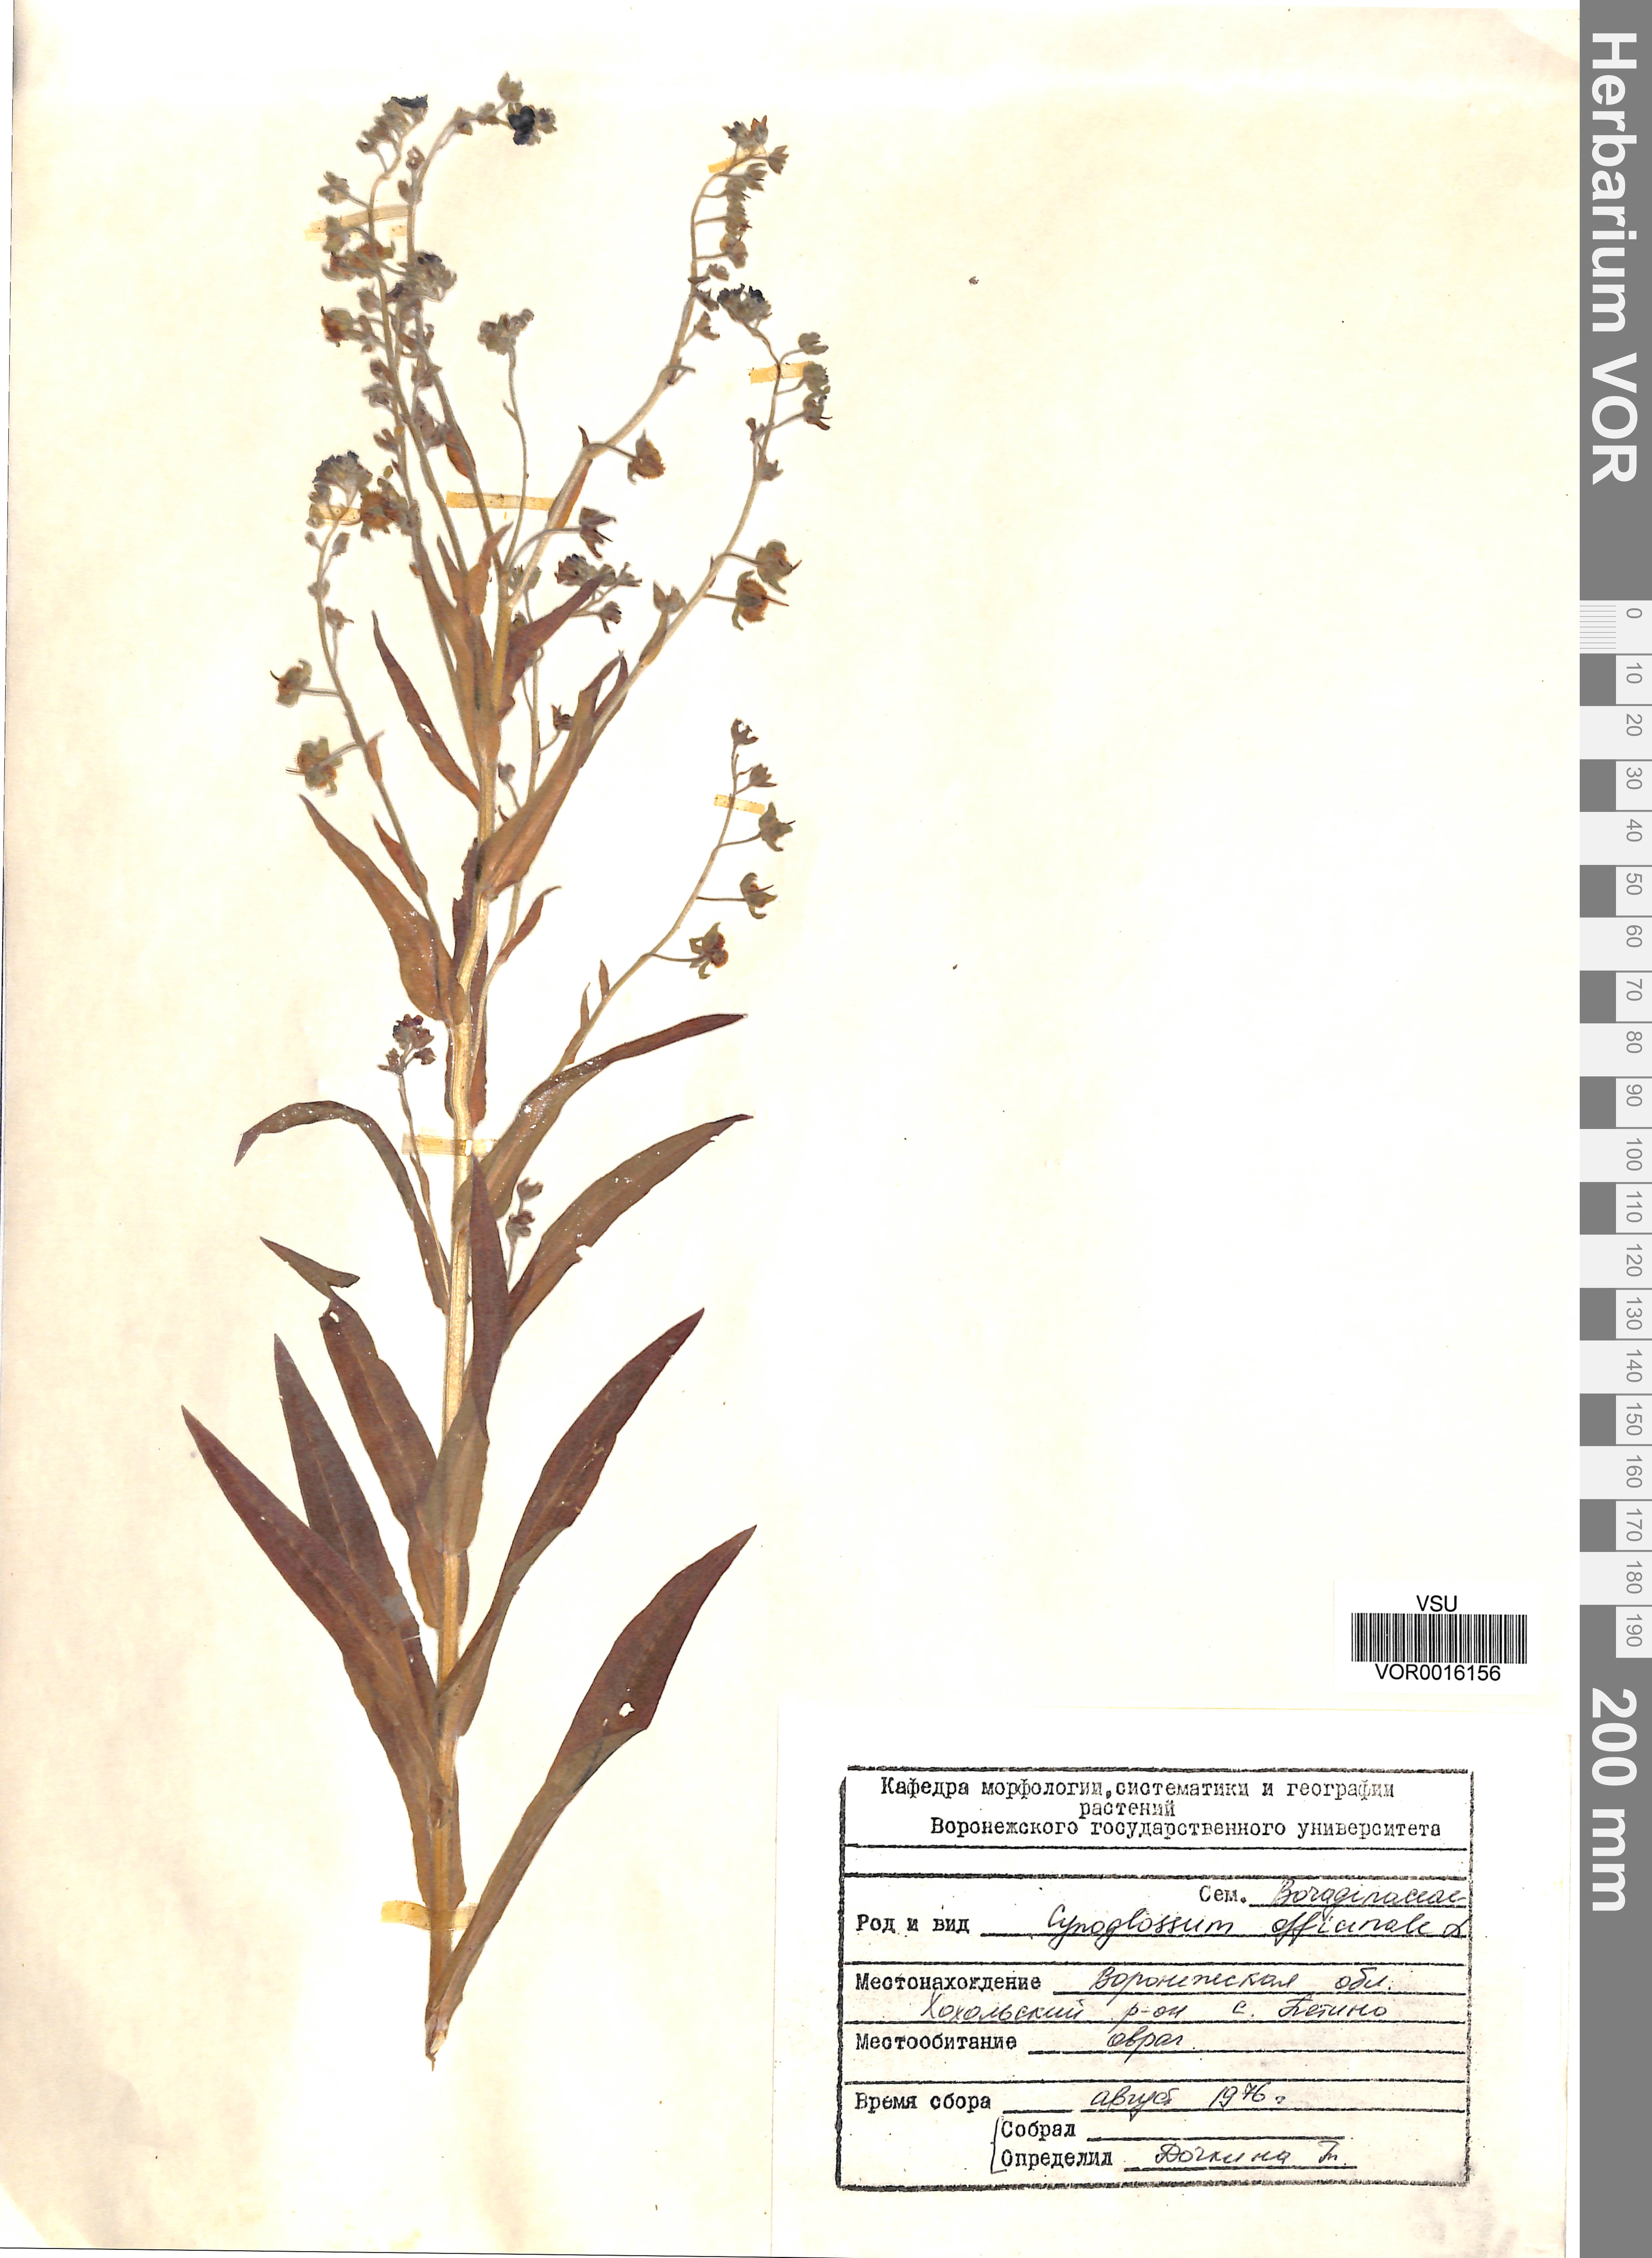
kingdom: Plantae
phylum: Tracheophyta
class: Magnoliopsida
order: Boraginales
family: Boraginaceae
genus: Cynoglossum
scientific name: Cynoglossum officinale
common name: Hound's-tongue
